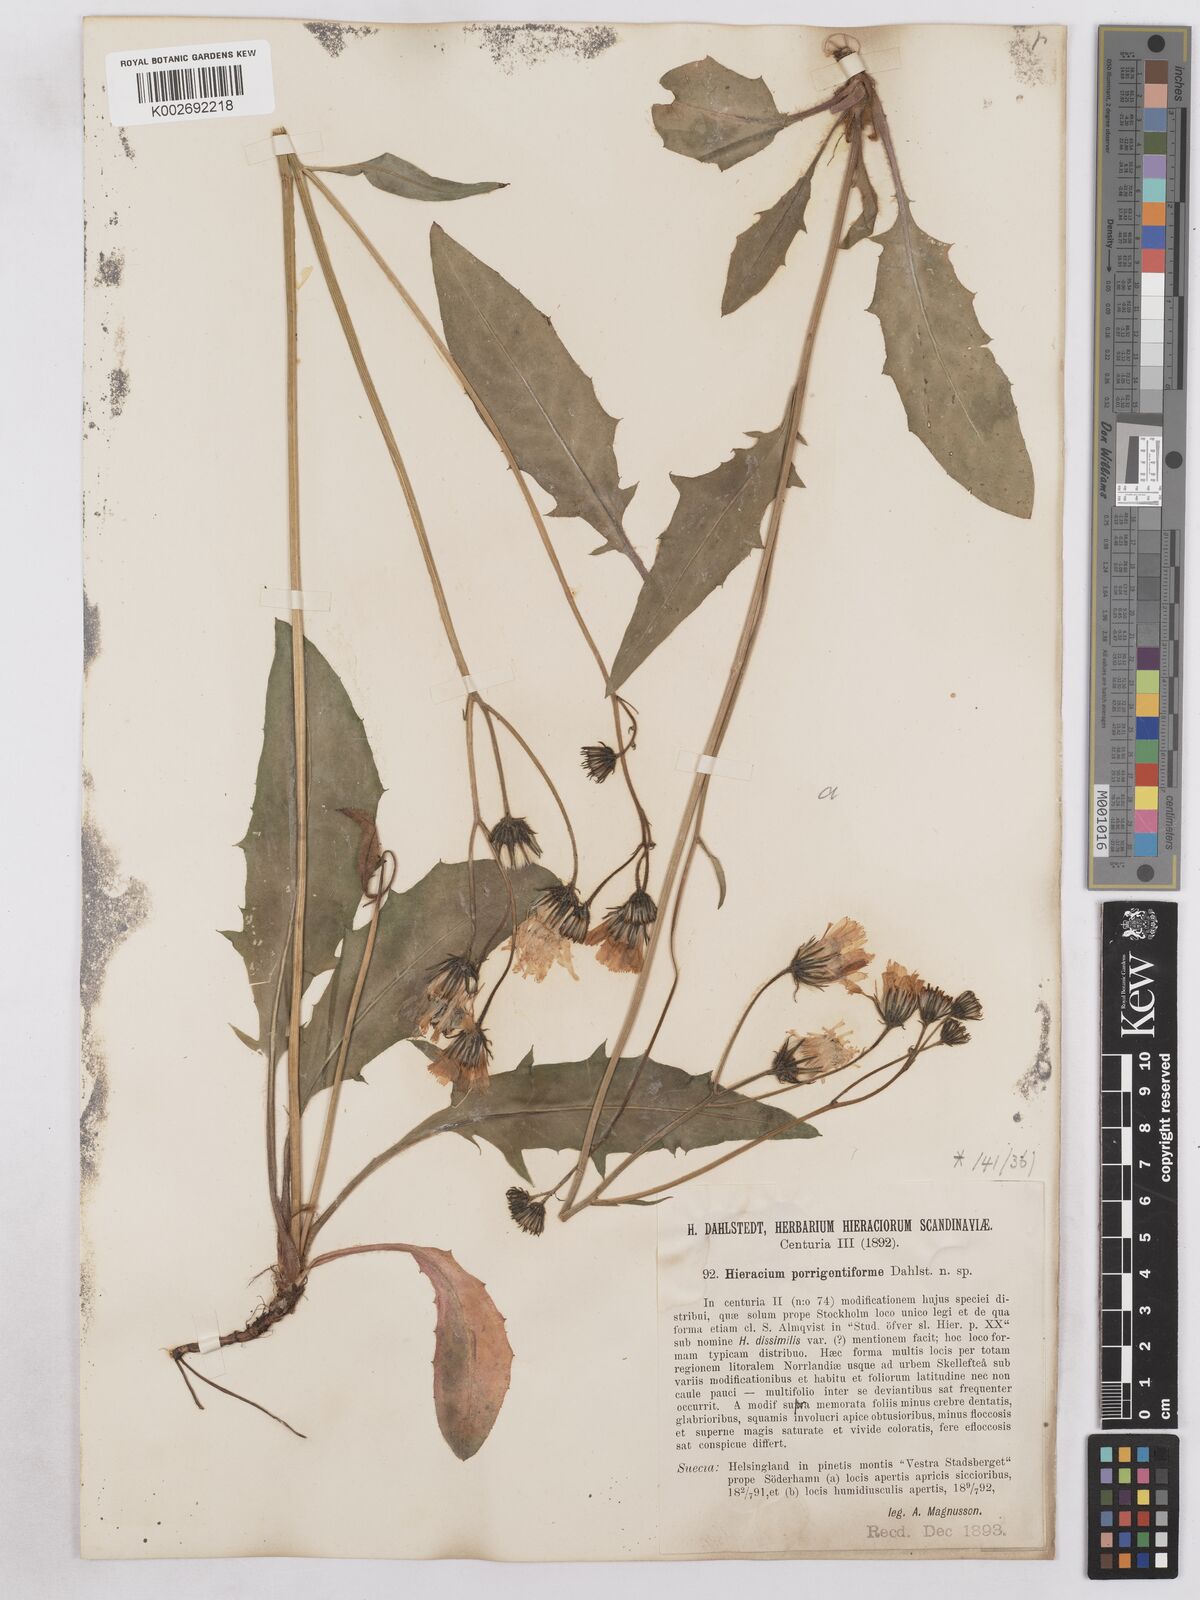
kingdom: Plantae
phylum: Tracheophyta
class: Magnoliopsida
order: Asterales
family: Asteraceae
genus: Hieracium
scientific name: Hieracium diaphanoides
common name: Fine-bracted hawkweed
